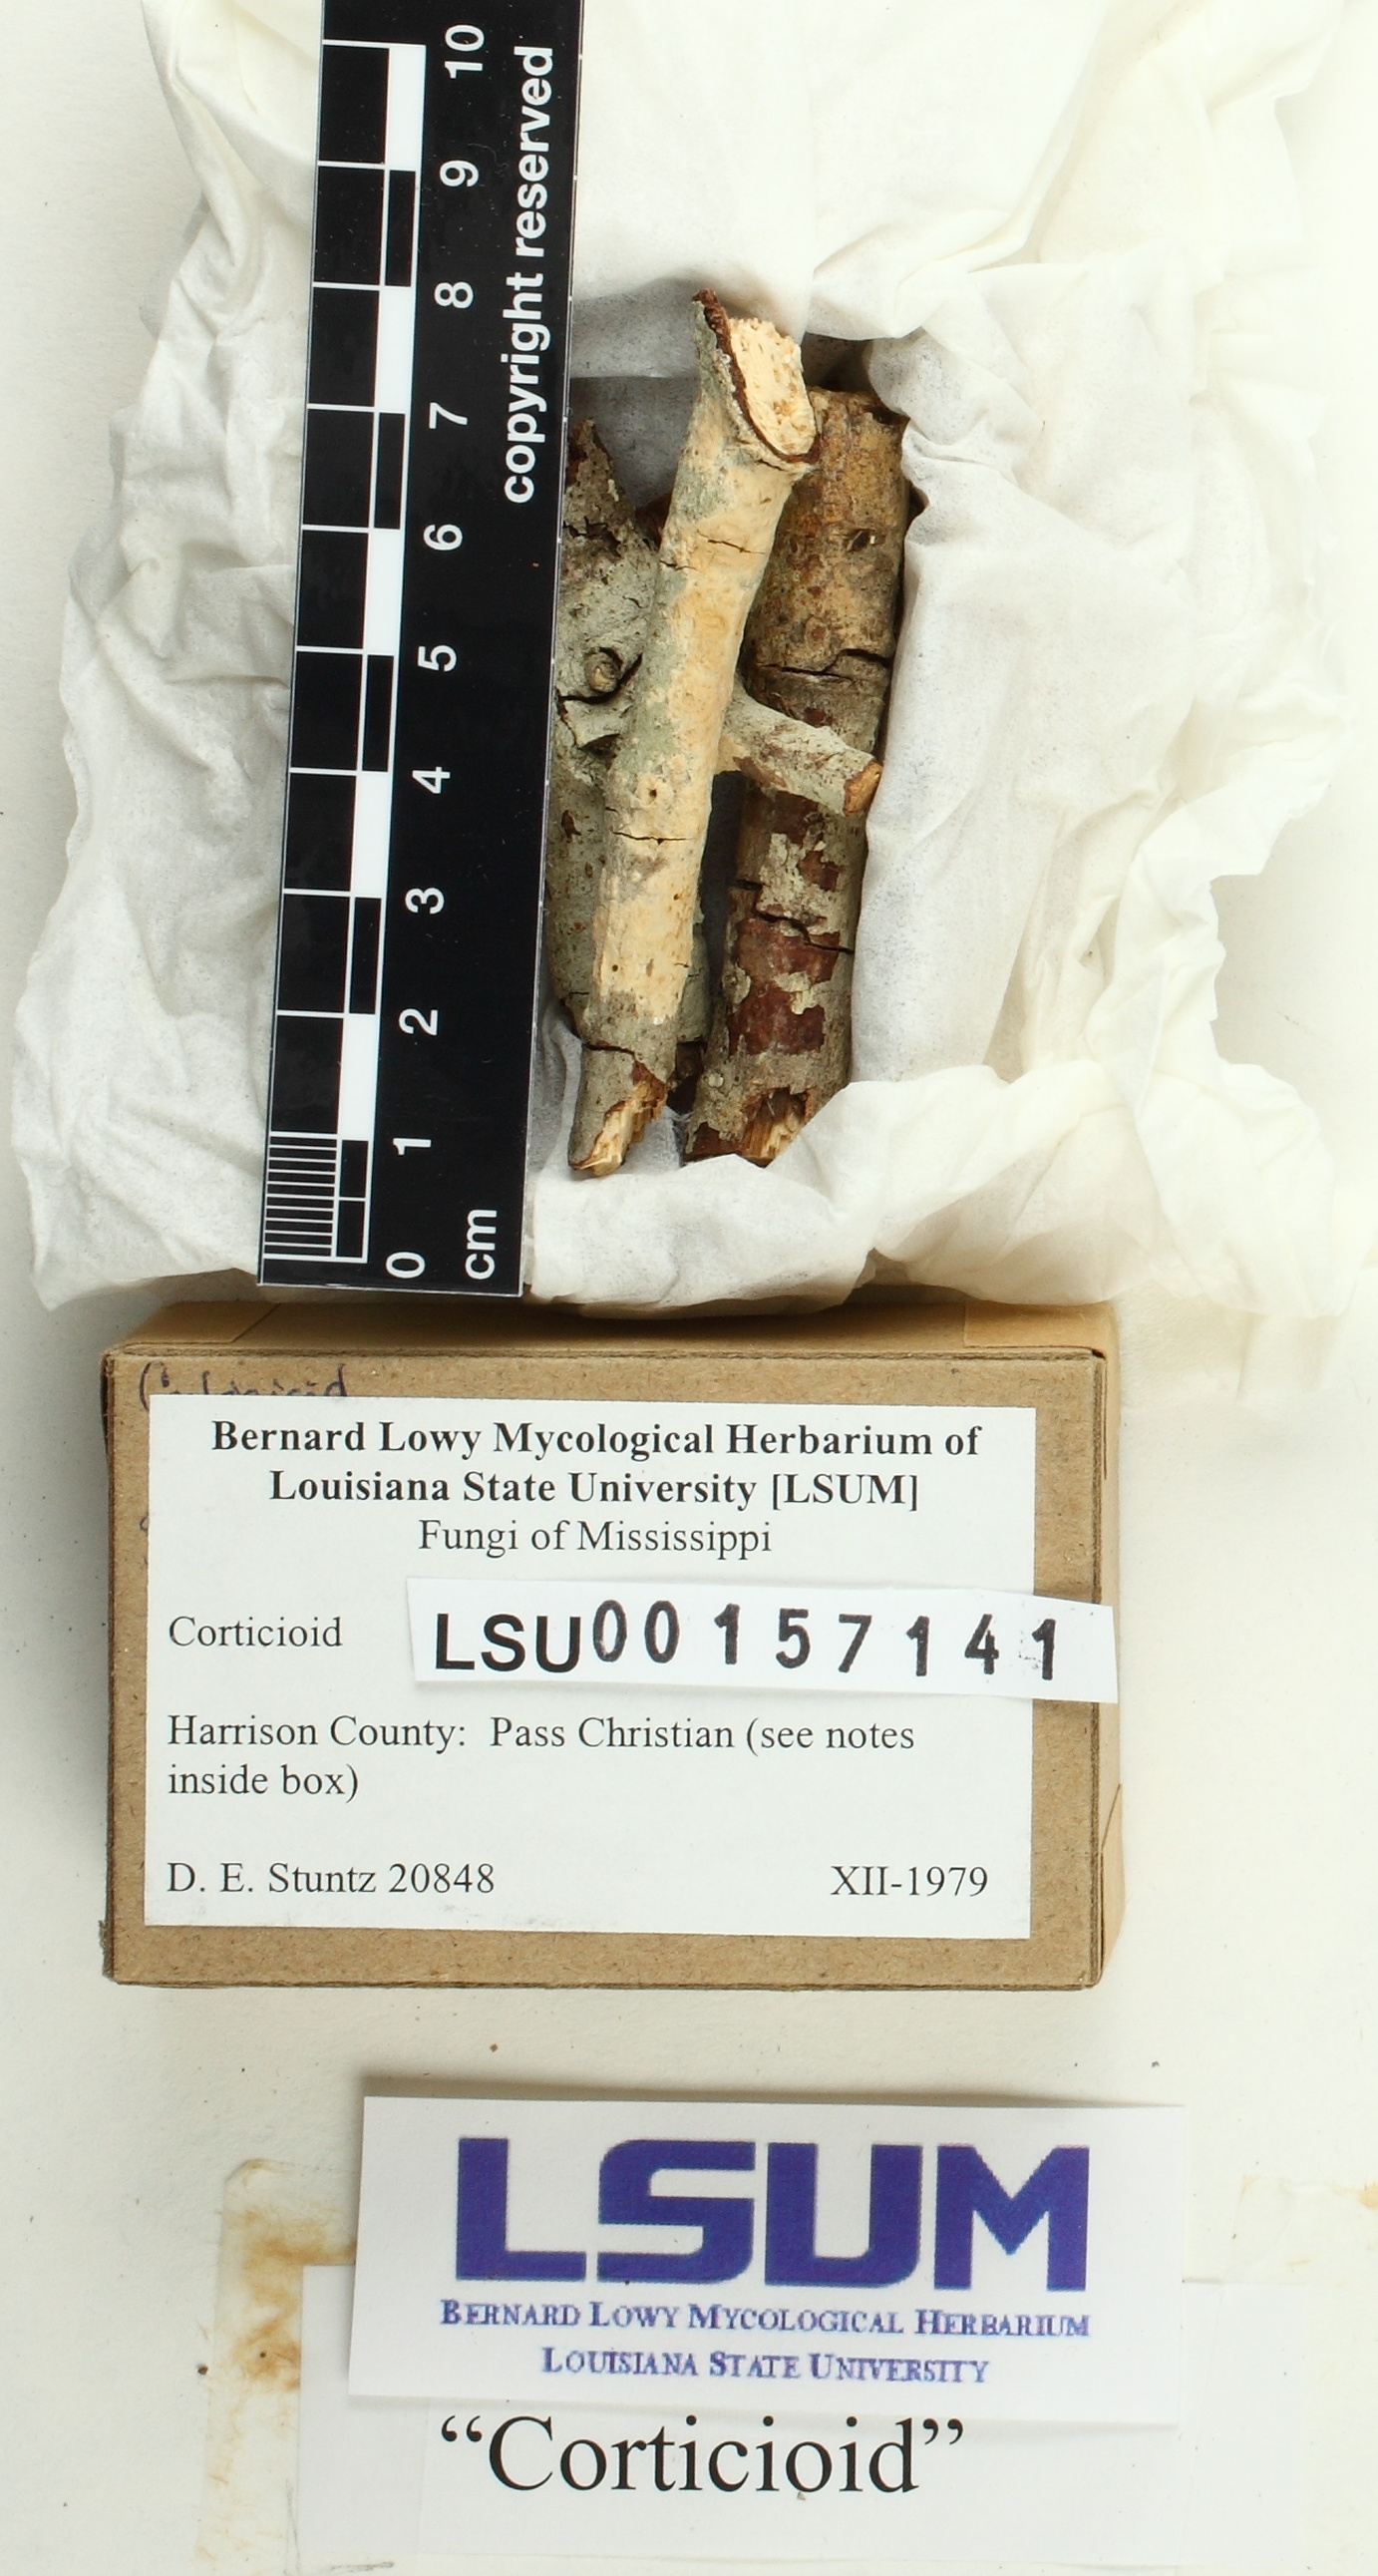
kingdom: Fungi
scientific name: Fungi
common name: Fungi
